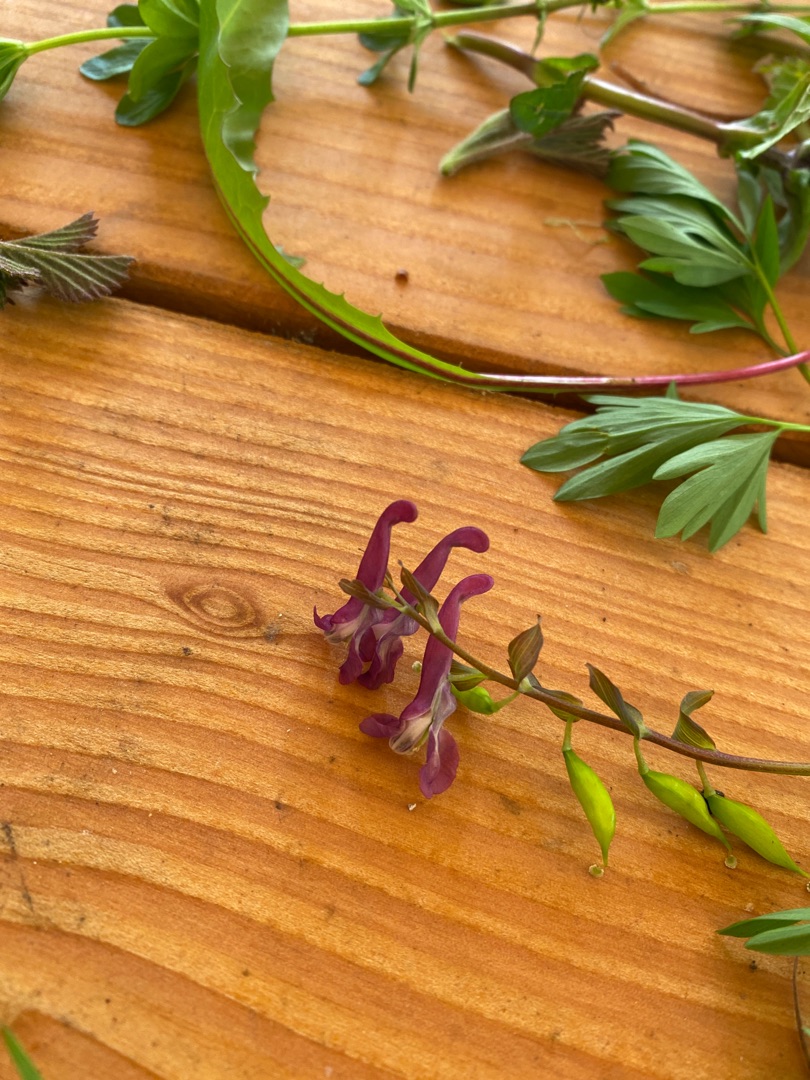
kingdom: Plantae
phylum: Tracheophyta
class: Magnoliopsida
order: Ranunculales
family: Papaveraceae
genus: Corydalis
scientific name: Corydalis cava
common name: Hulrodet lærkespore
